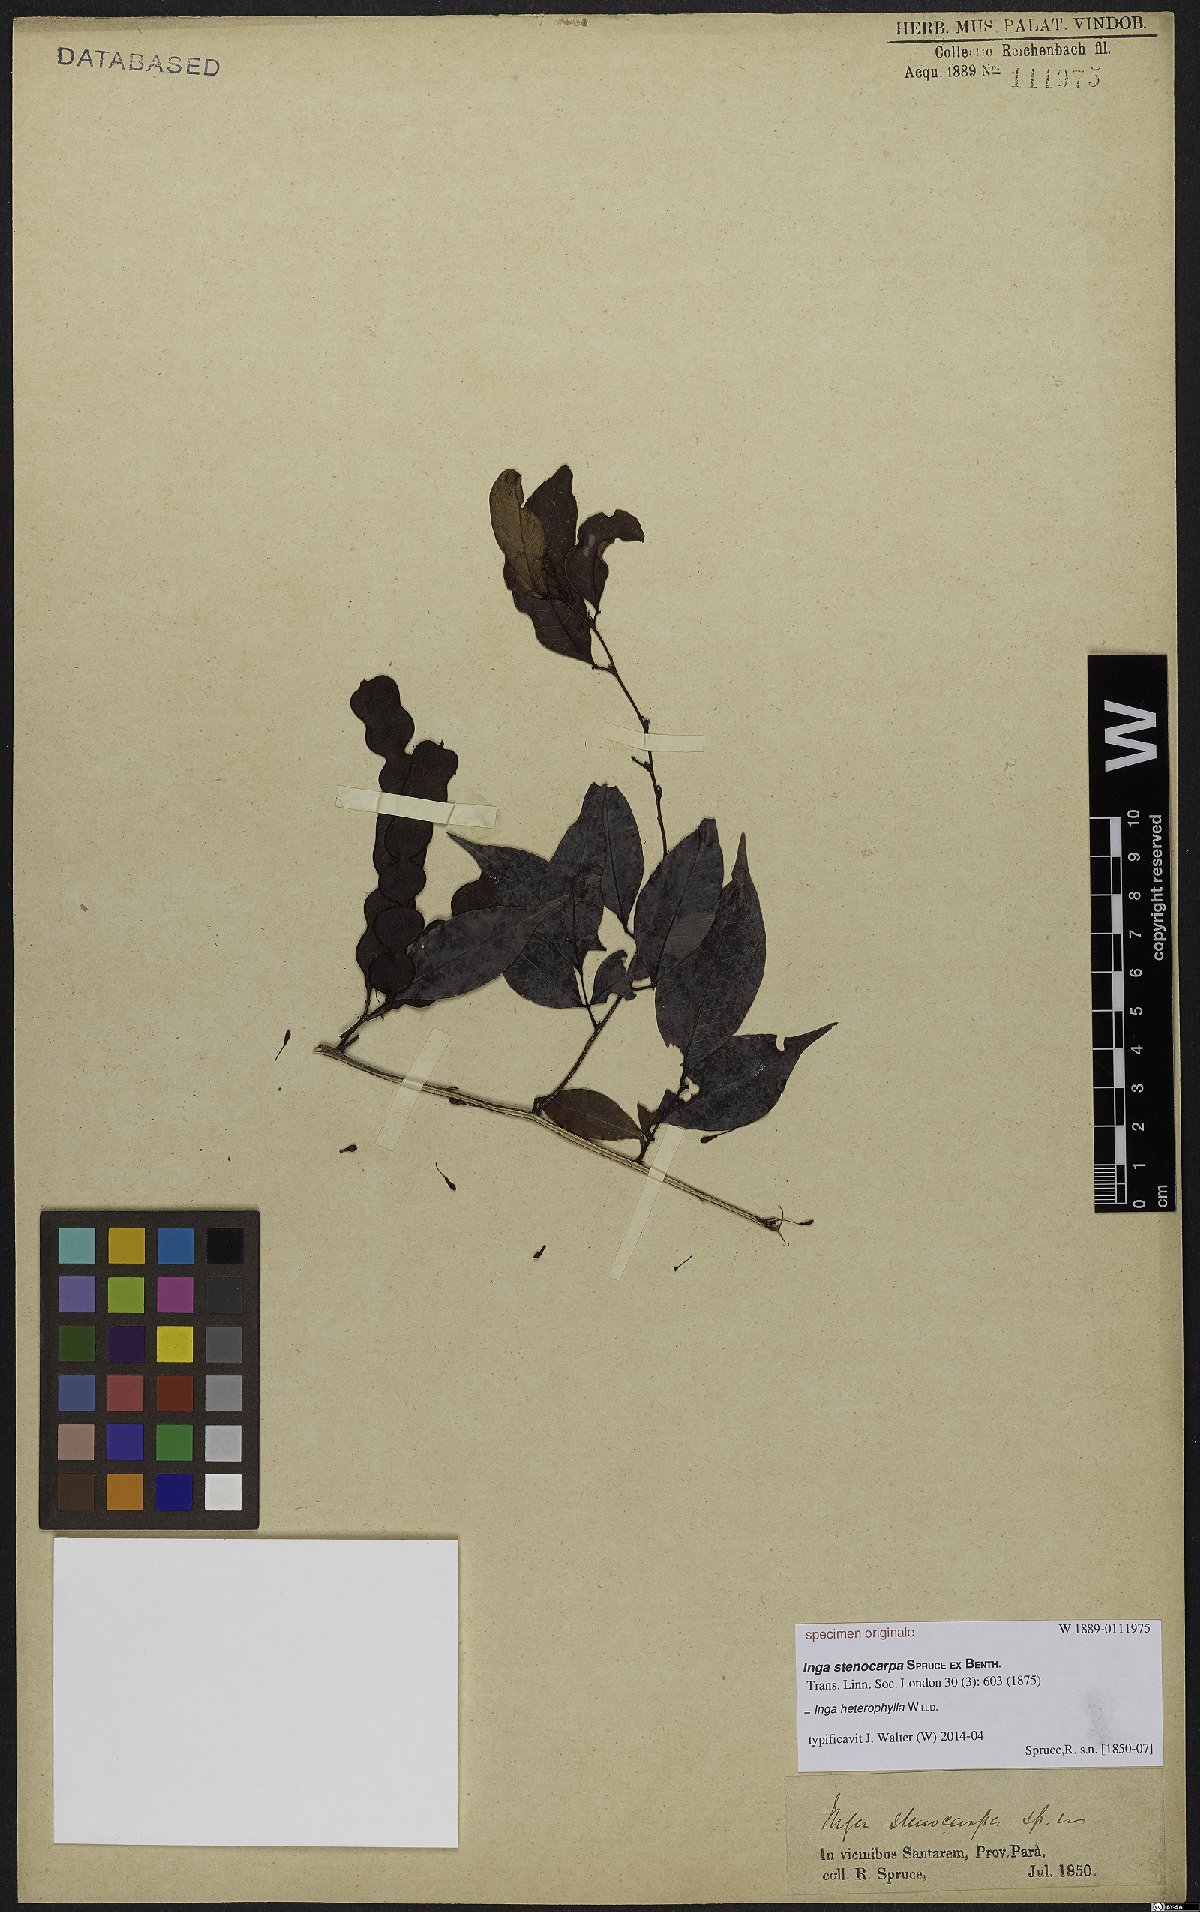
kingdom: Plantae
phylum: Tracheophyta
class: Magnoliopsida
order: Fabales
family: Fabaceae
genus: Inga
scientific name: Inga heterophylla
